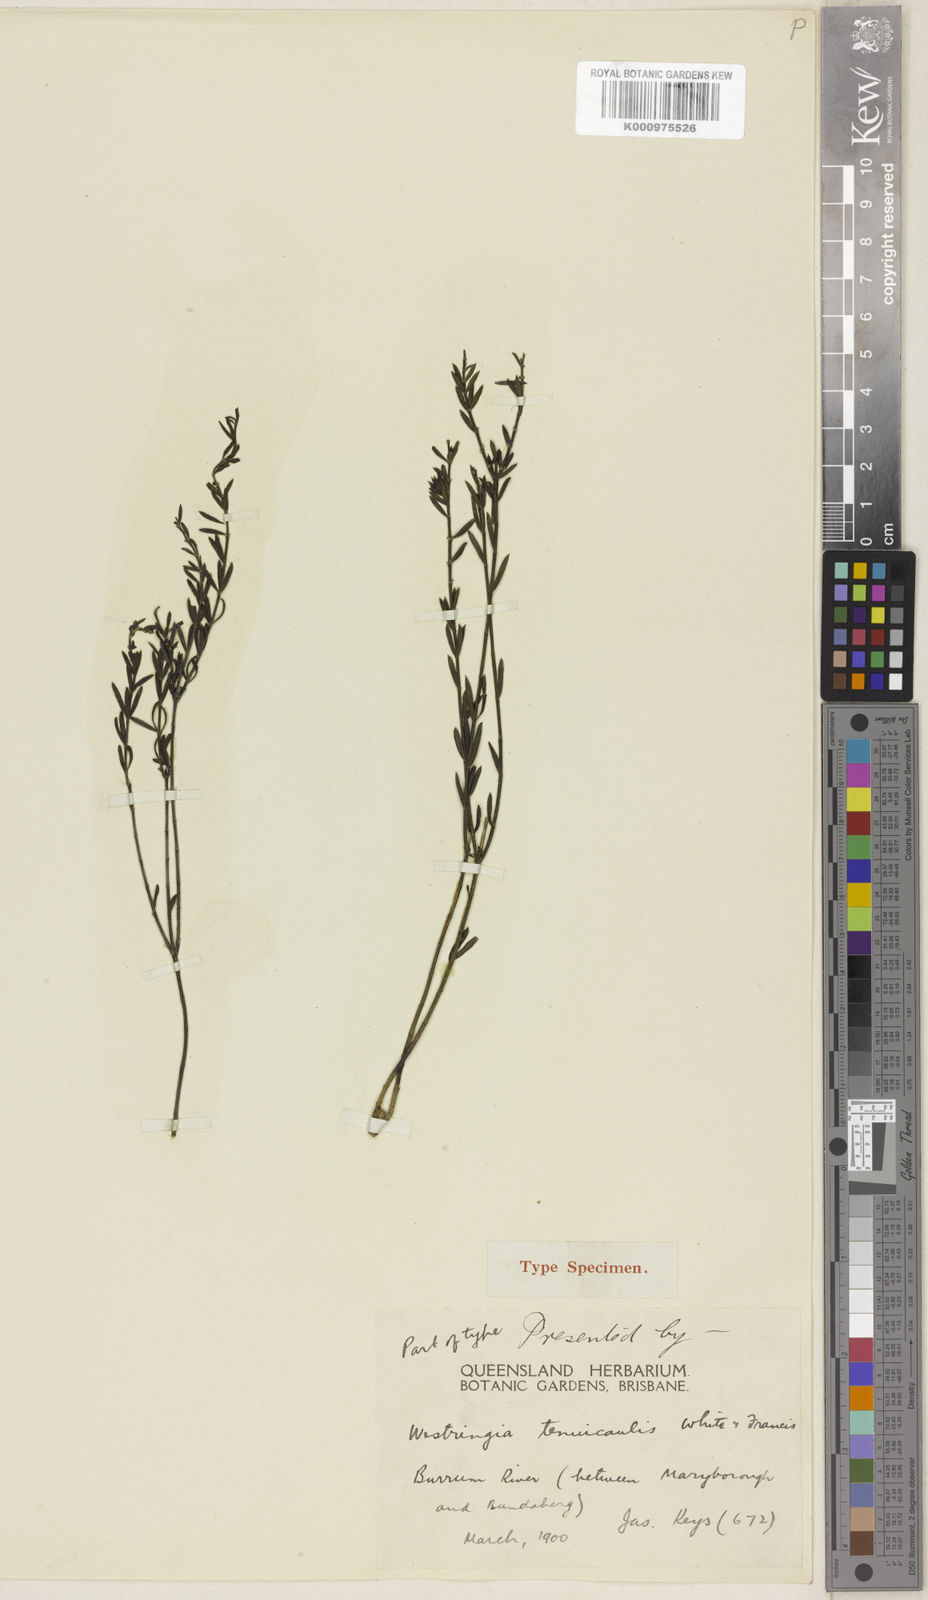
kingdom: Plantae
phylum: Tracheophyta
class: Magnoliopsida
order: Lamiales
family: Lamiaceae
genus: Westringia
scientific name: Westringia tenuicaulis
